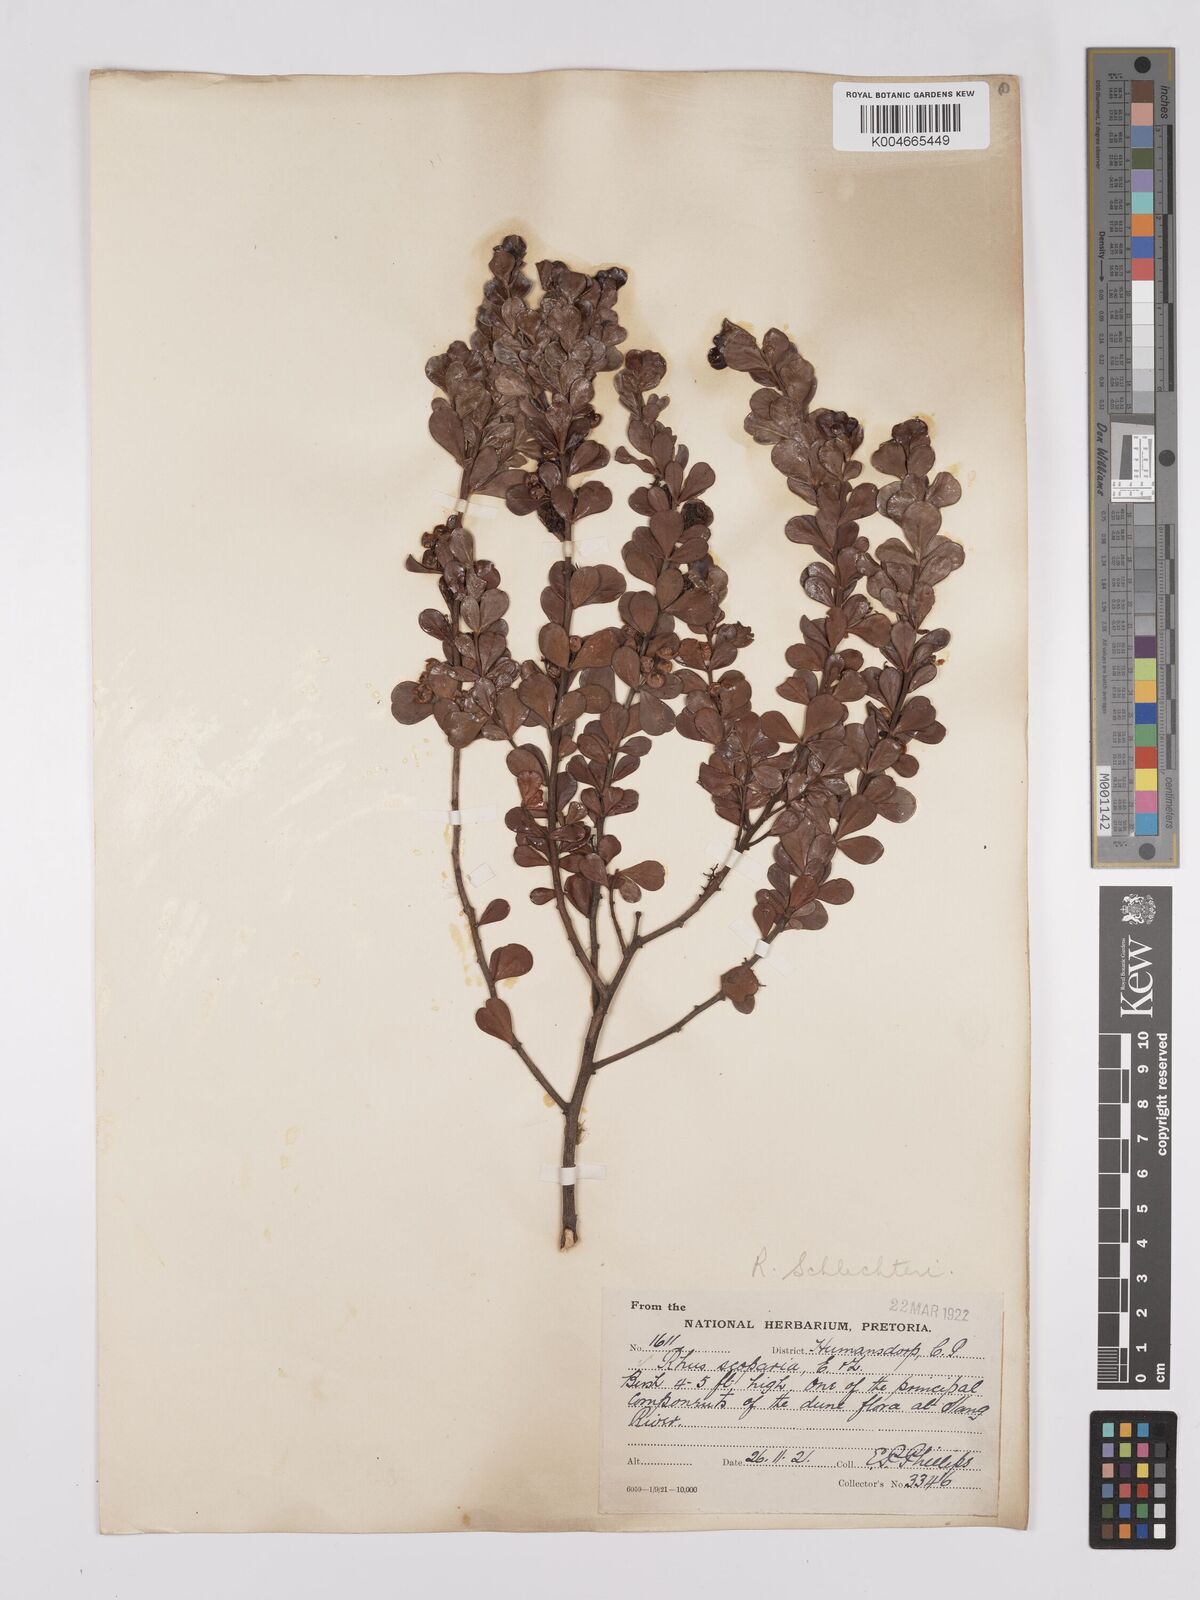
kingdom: Plantae
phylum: Tracheophyta
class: Magnoliopsida
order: Sapindales
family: Anacardiaceae
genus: Searsia
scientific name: Searsia lucida
